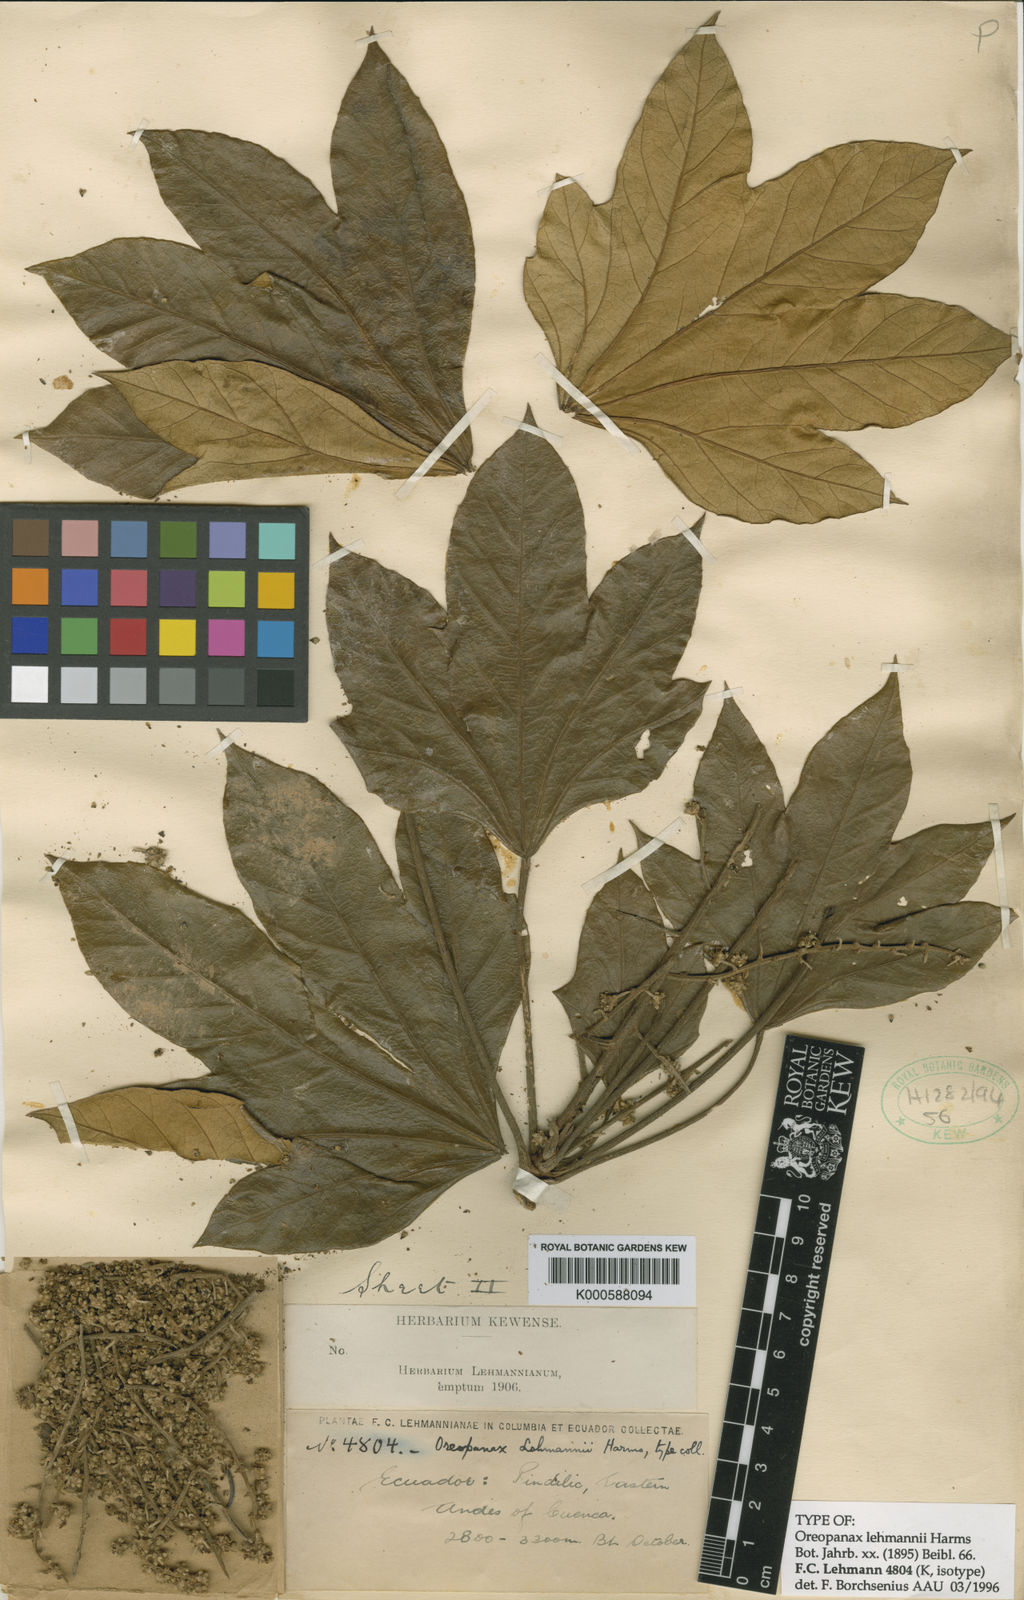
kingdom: Plantae
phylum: Tracheophyta
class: Magnoliopsida
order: Apiales
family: Araliaceae
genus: Oreopanax
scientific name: Oreopanax lehmannii
